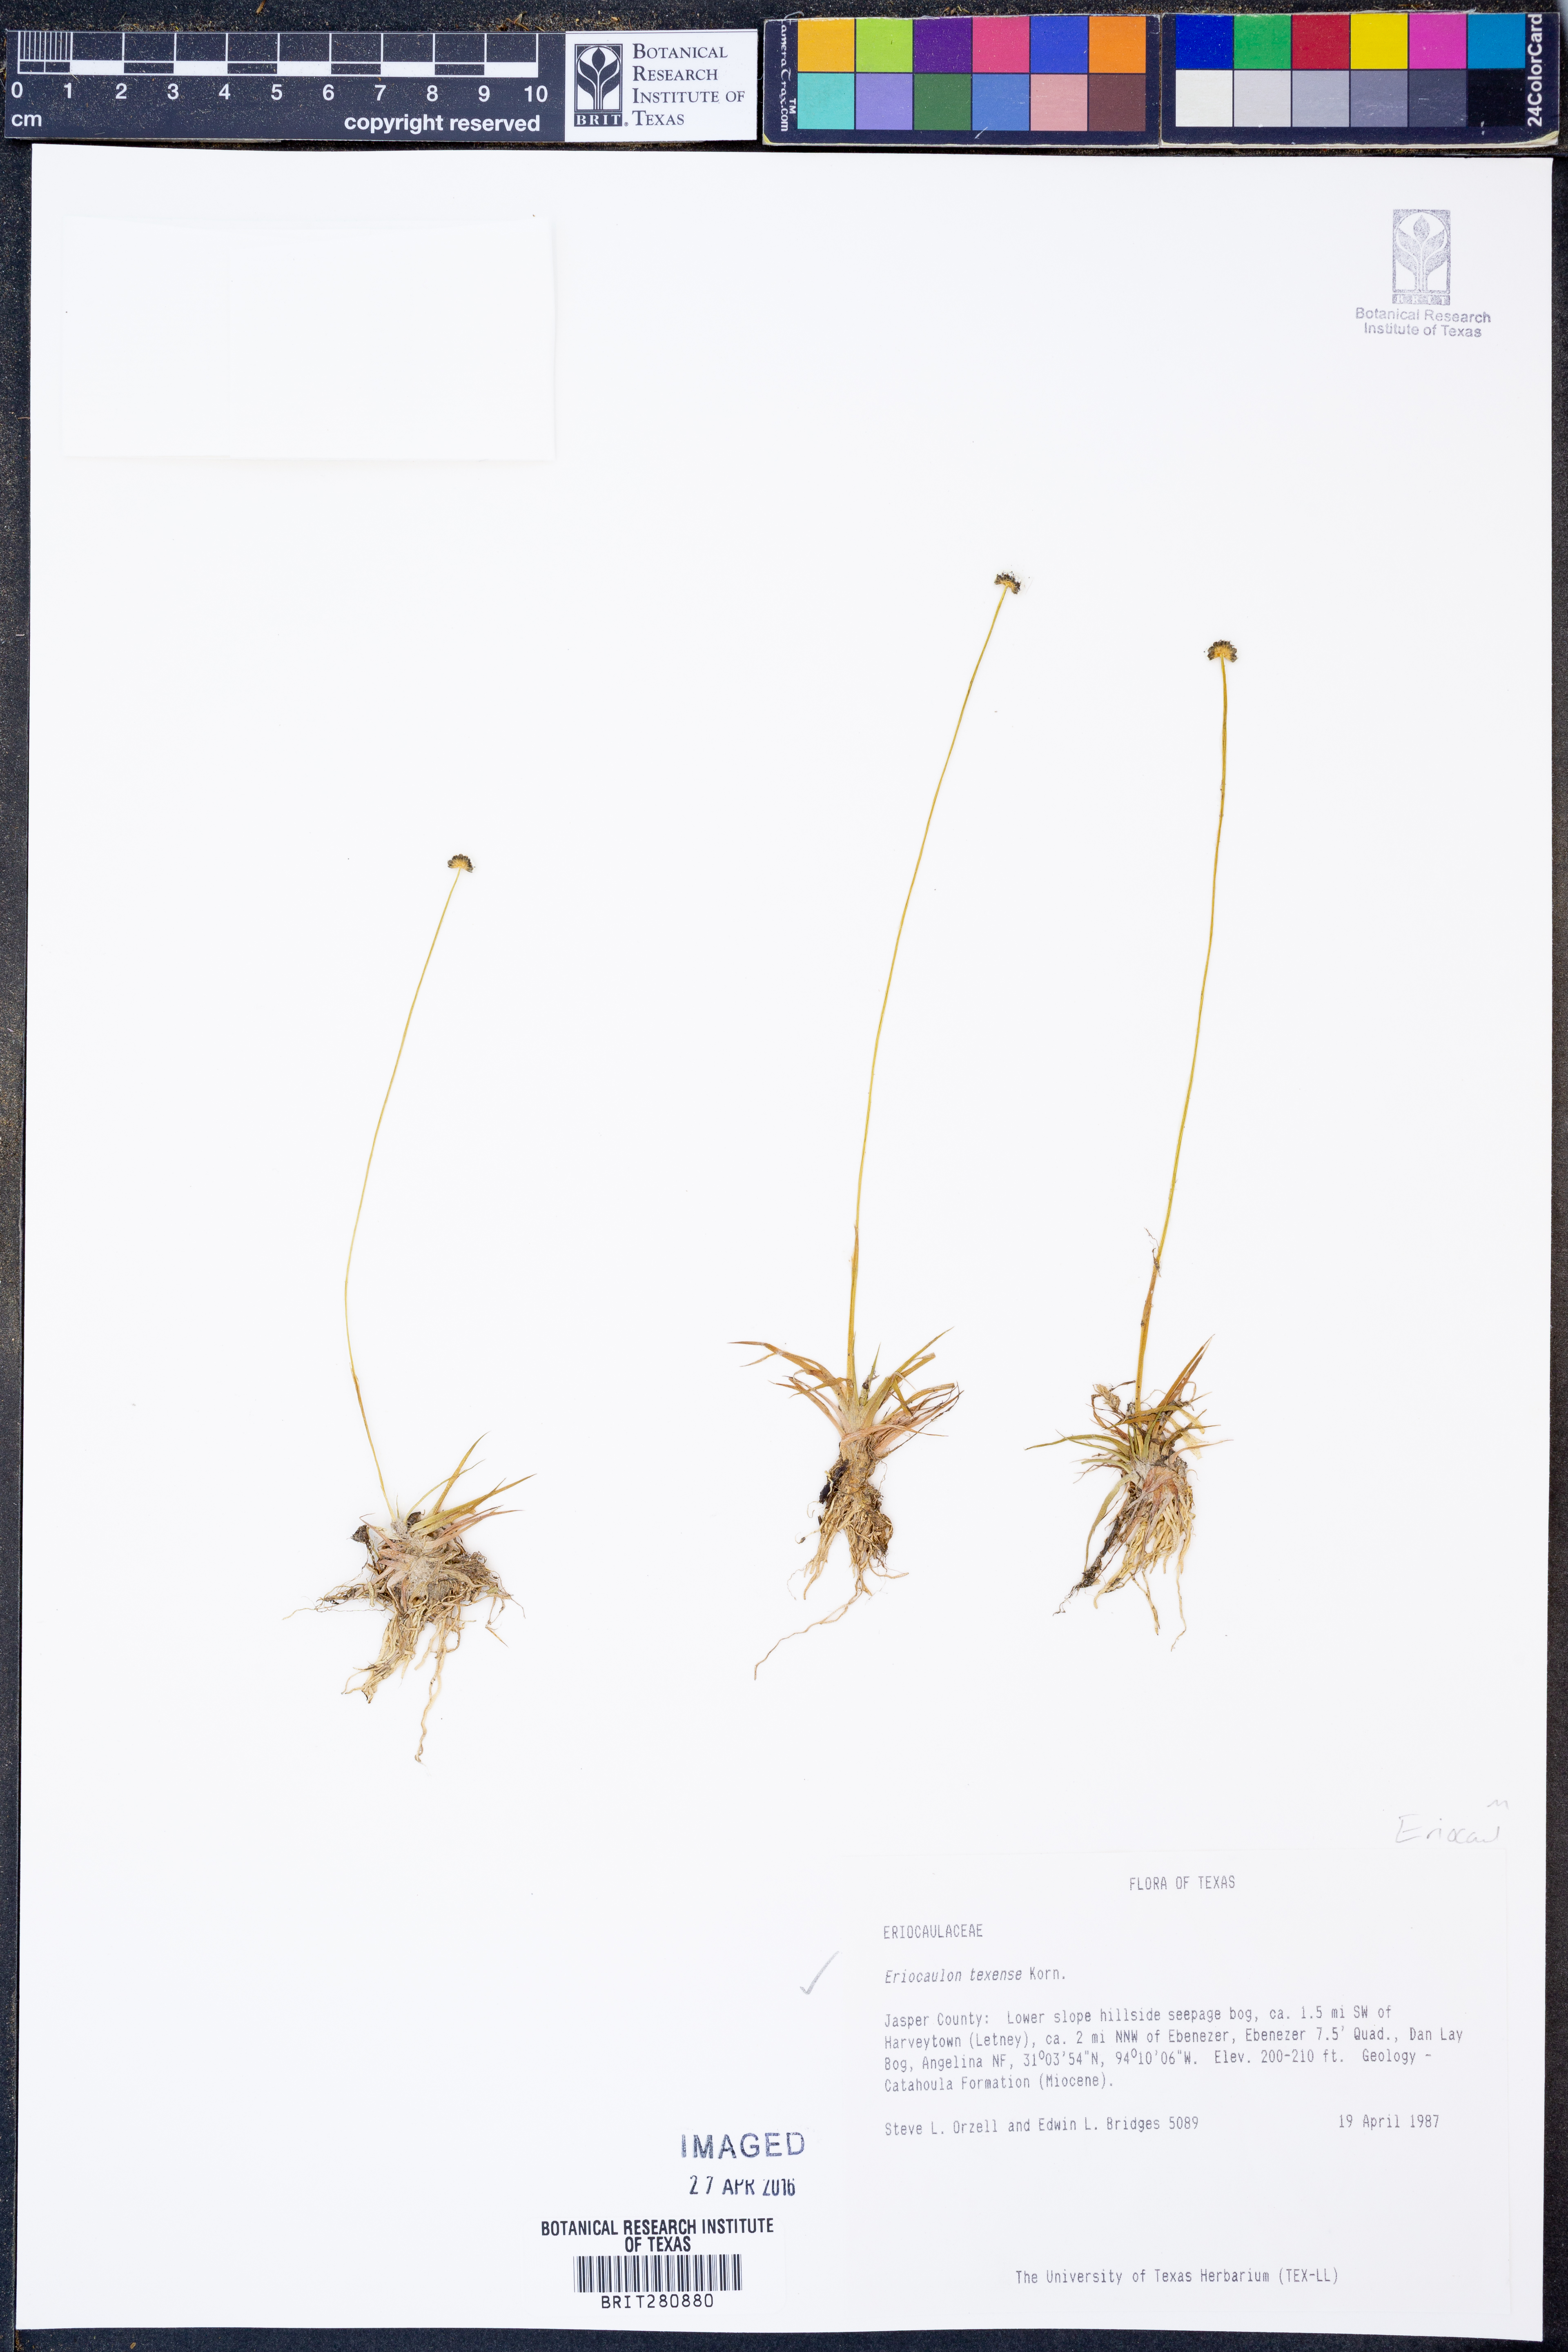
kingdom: Plantae
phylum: Tracheophyta
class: Liliopsida
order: Poales
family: Eriocaulaceae
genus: Eriocaulon
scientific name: Eriocaulon texense
